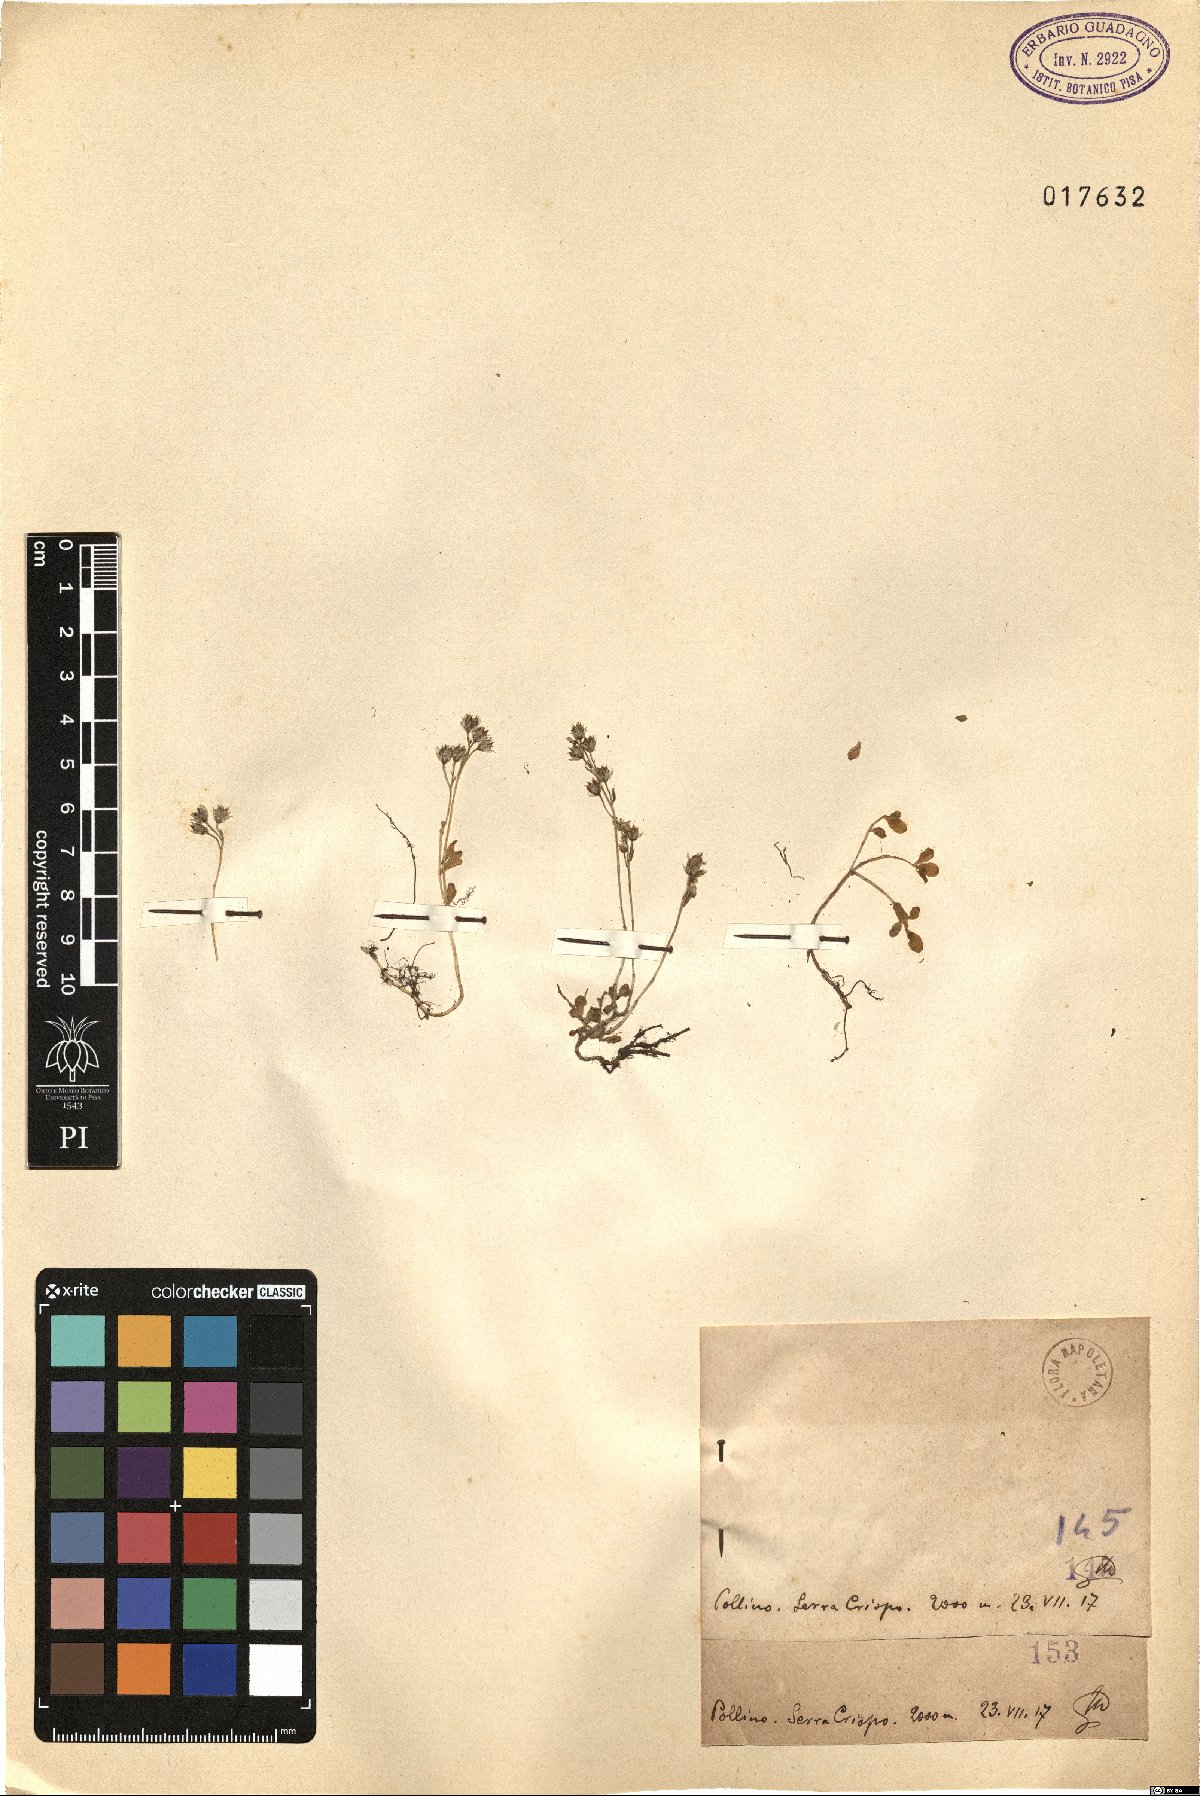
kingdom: Plantae
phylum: Tracheophyta
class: Magnoliopsida
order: Saxifragales
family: Crassulaceae
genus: Sedum
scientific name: Sedum
